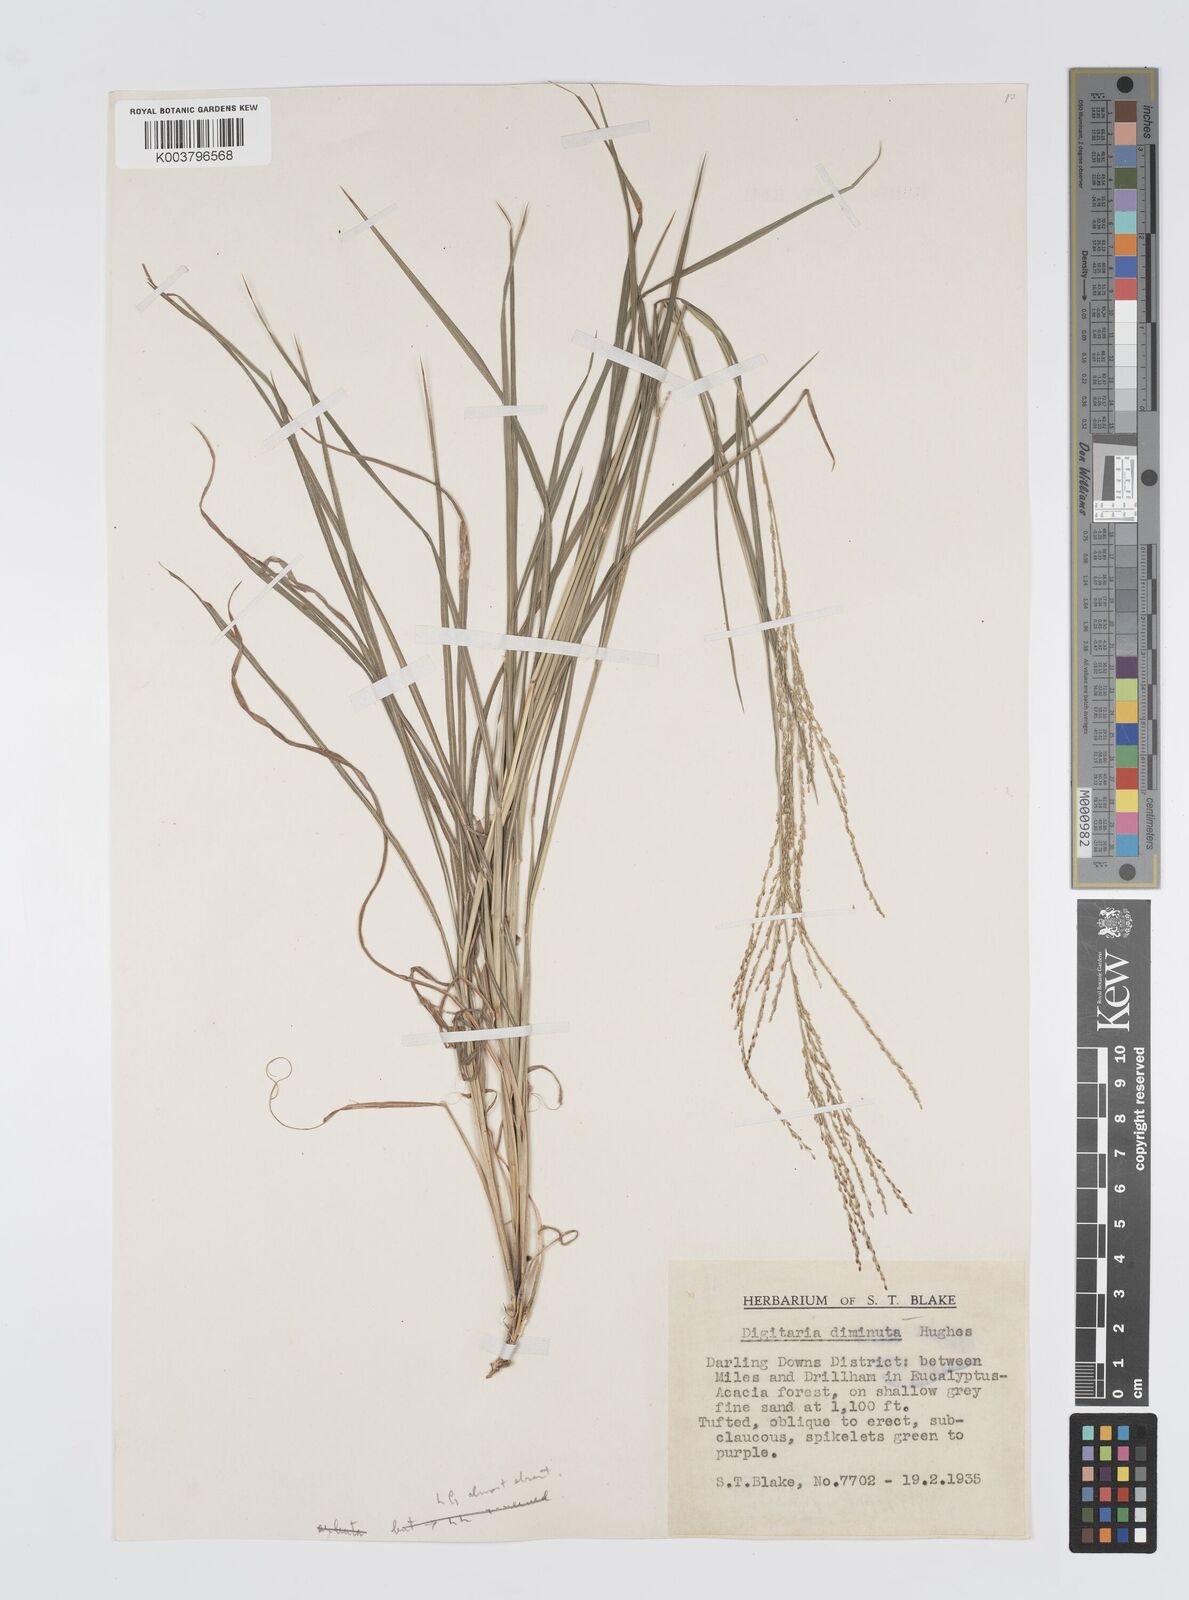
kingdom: Plantae
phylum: Tracheophyta
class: Liliopsida
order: Poales
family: Poaceae
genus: Digitaria
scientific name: Digitaria breviglumis
